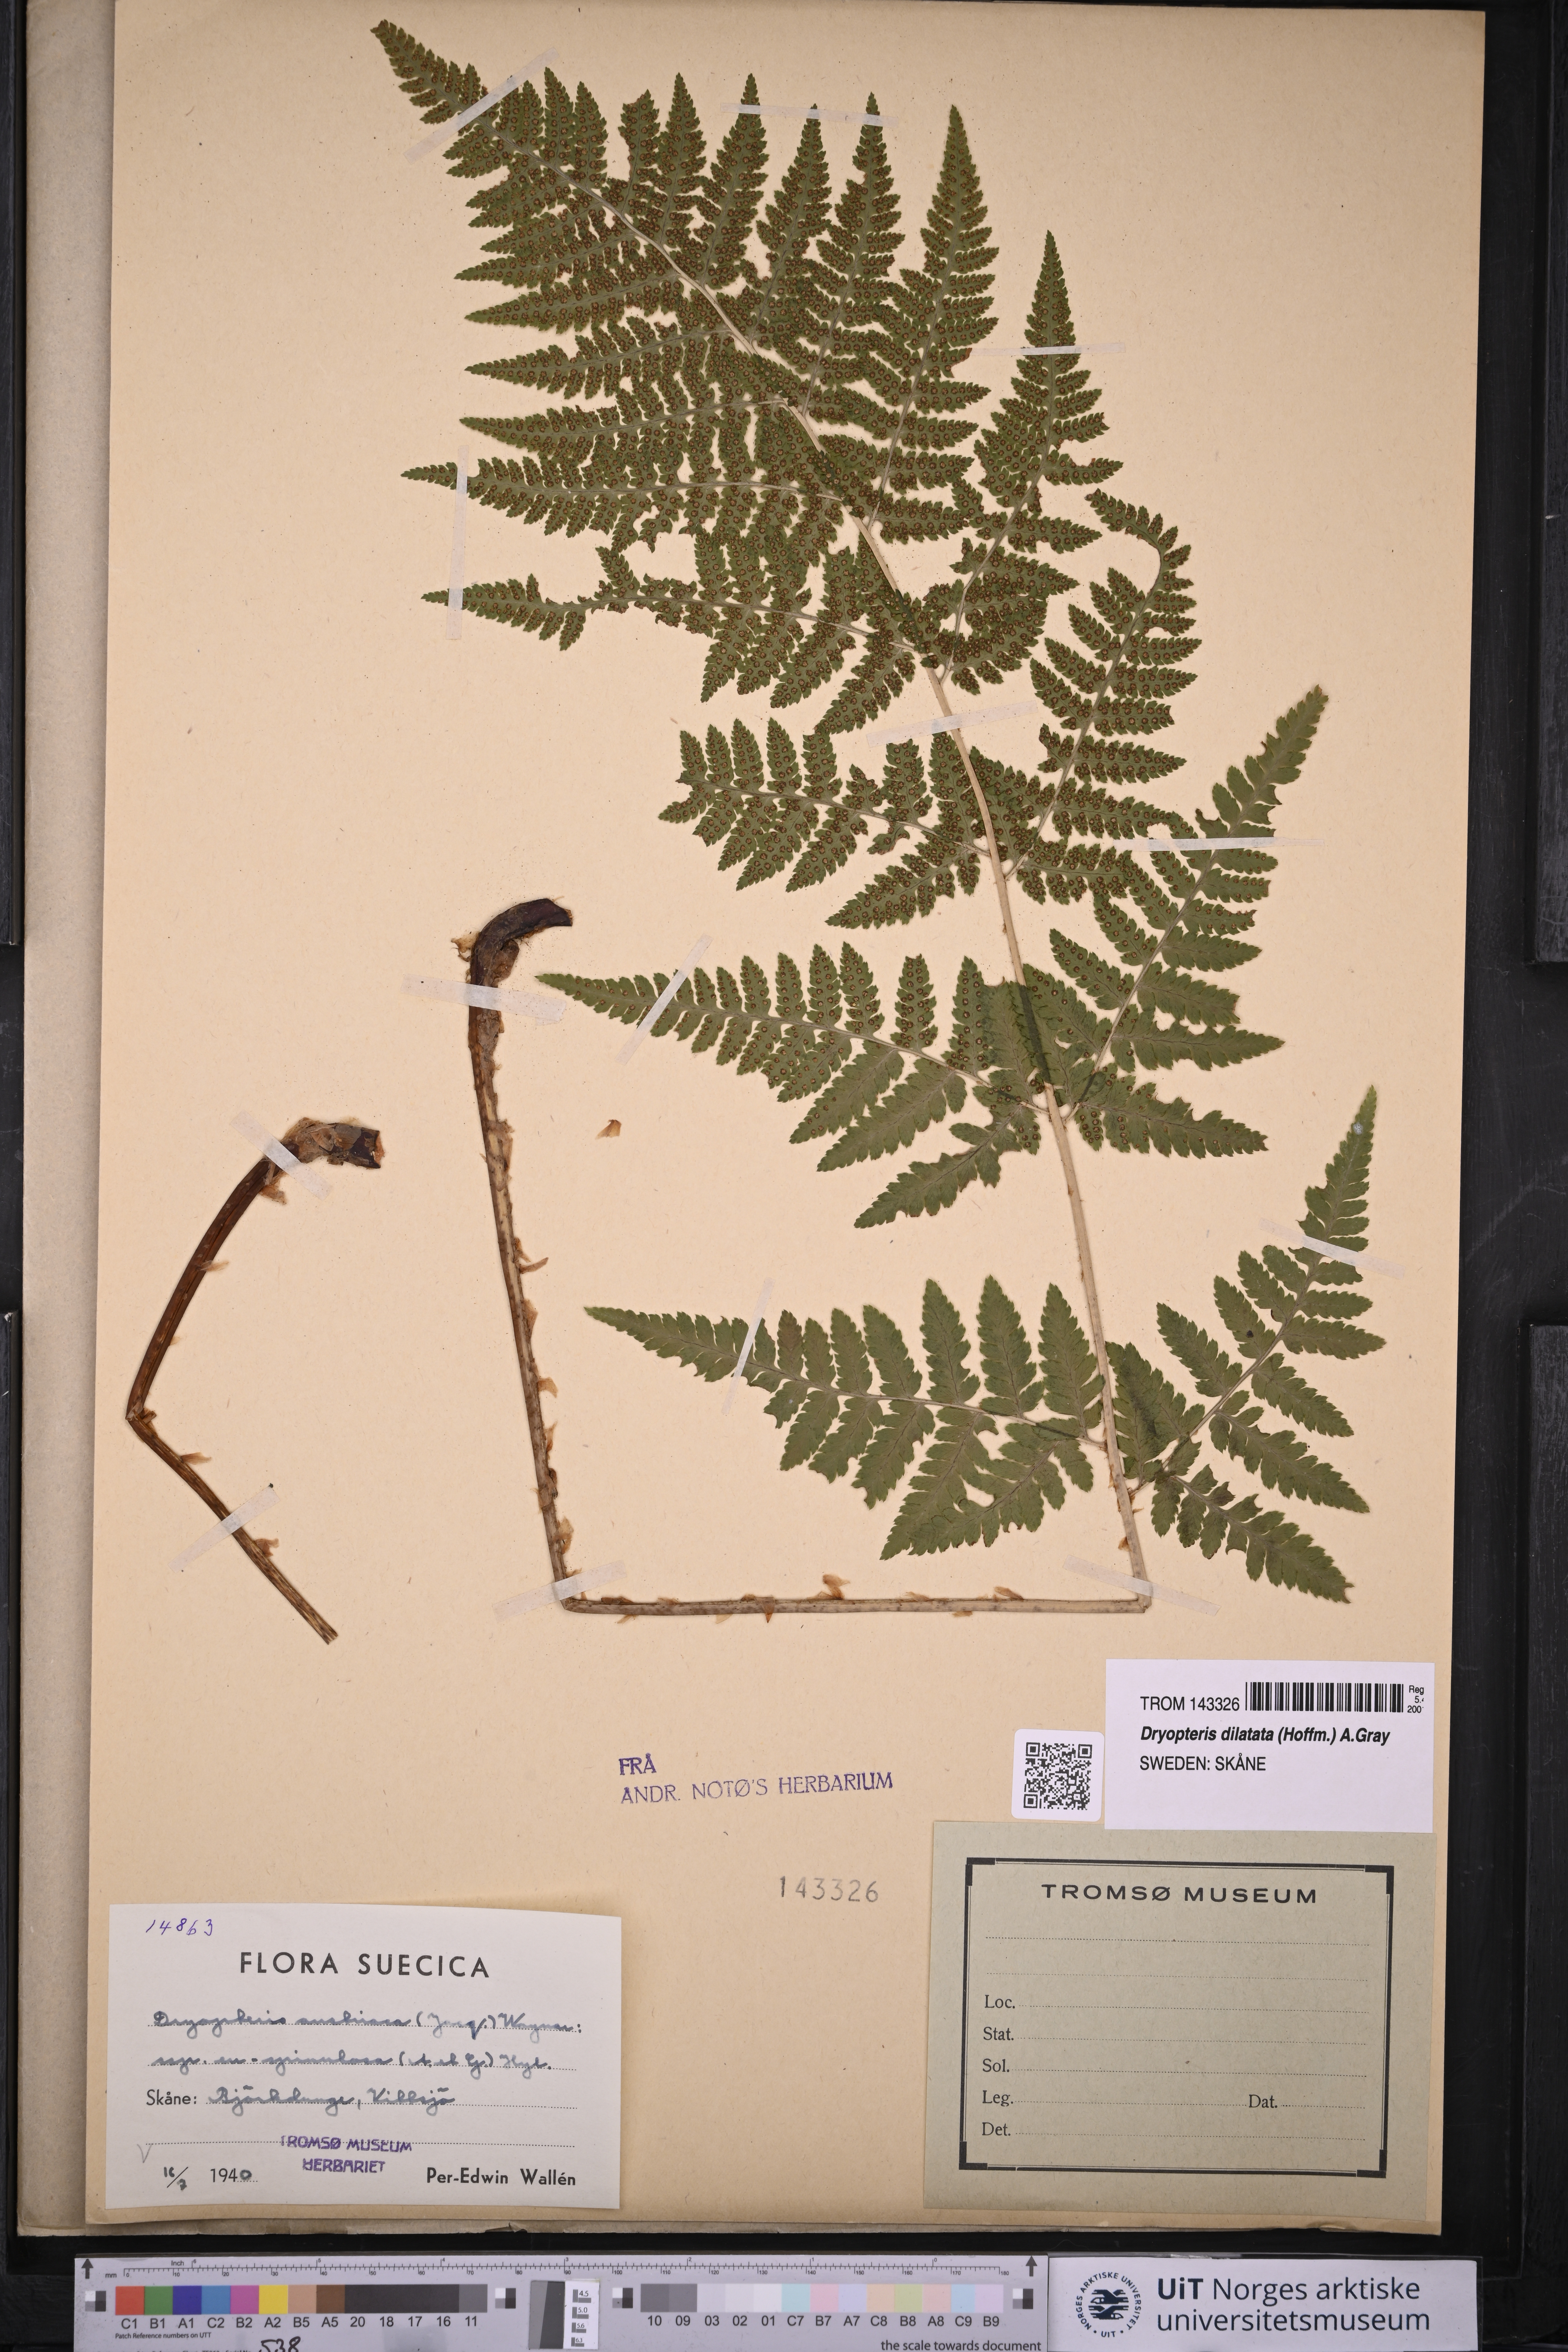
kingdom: Plantae
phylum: Tracheophyta
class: Polypodiopsida
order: Polypodiales
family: Dryopteridaceae
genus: Dryopteris
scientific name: Dryopteris dilatata
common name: Broad buckler-fern
